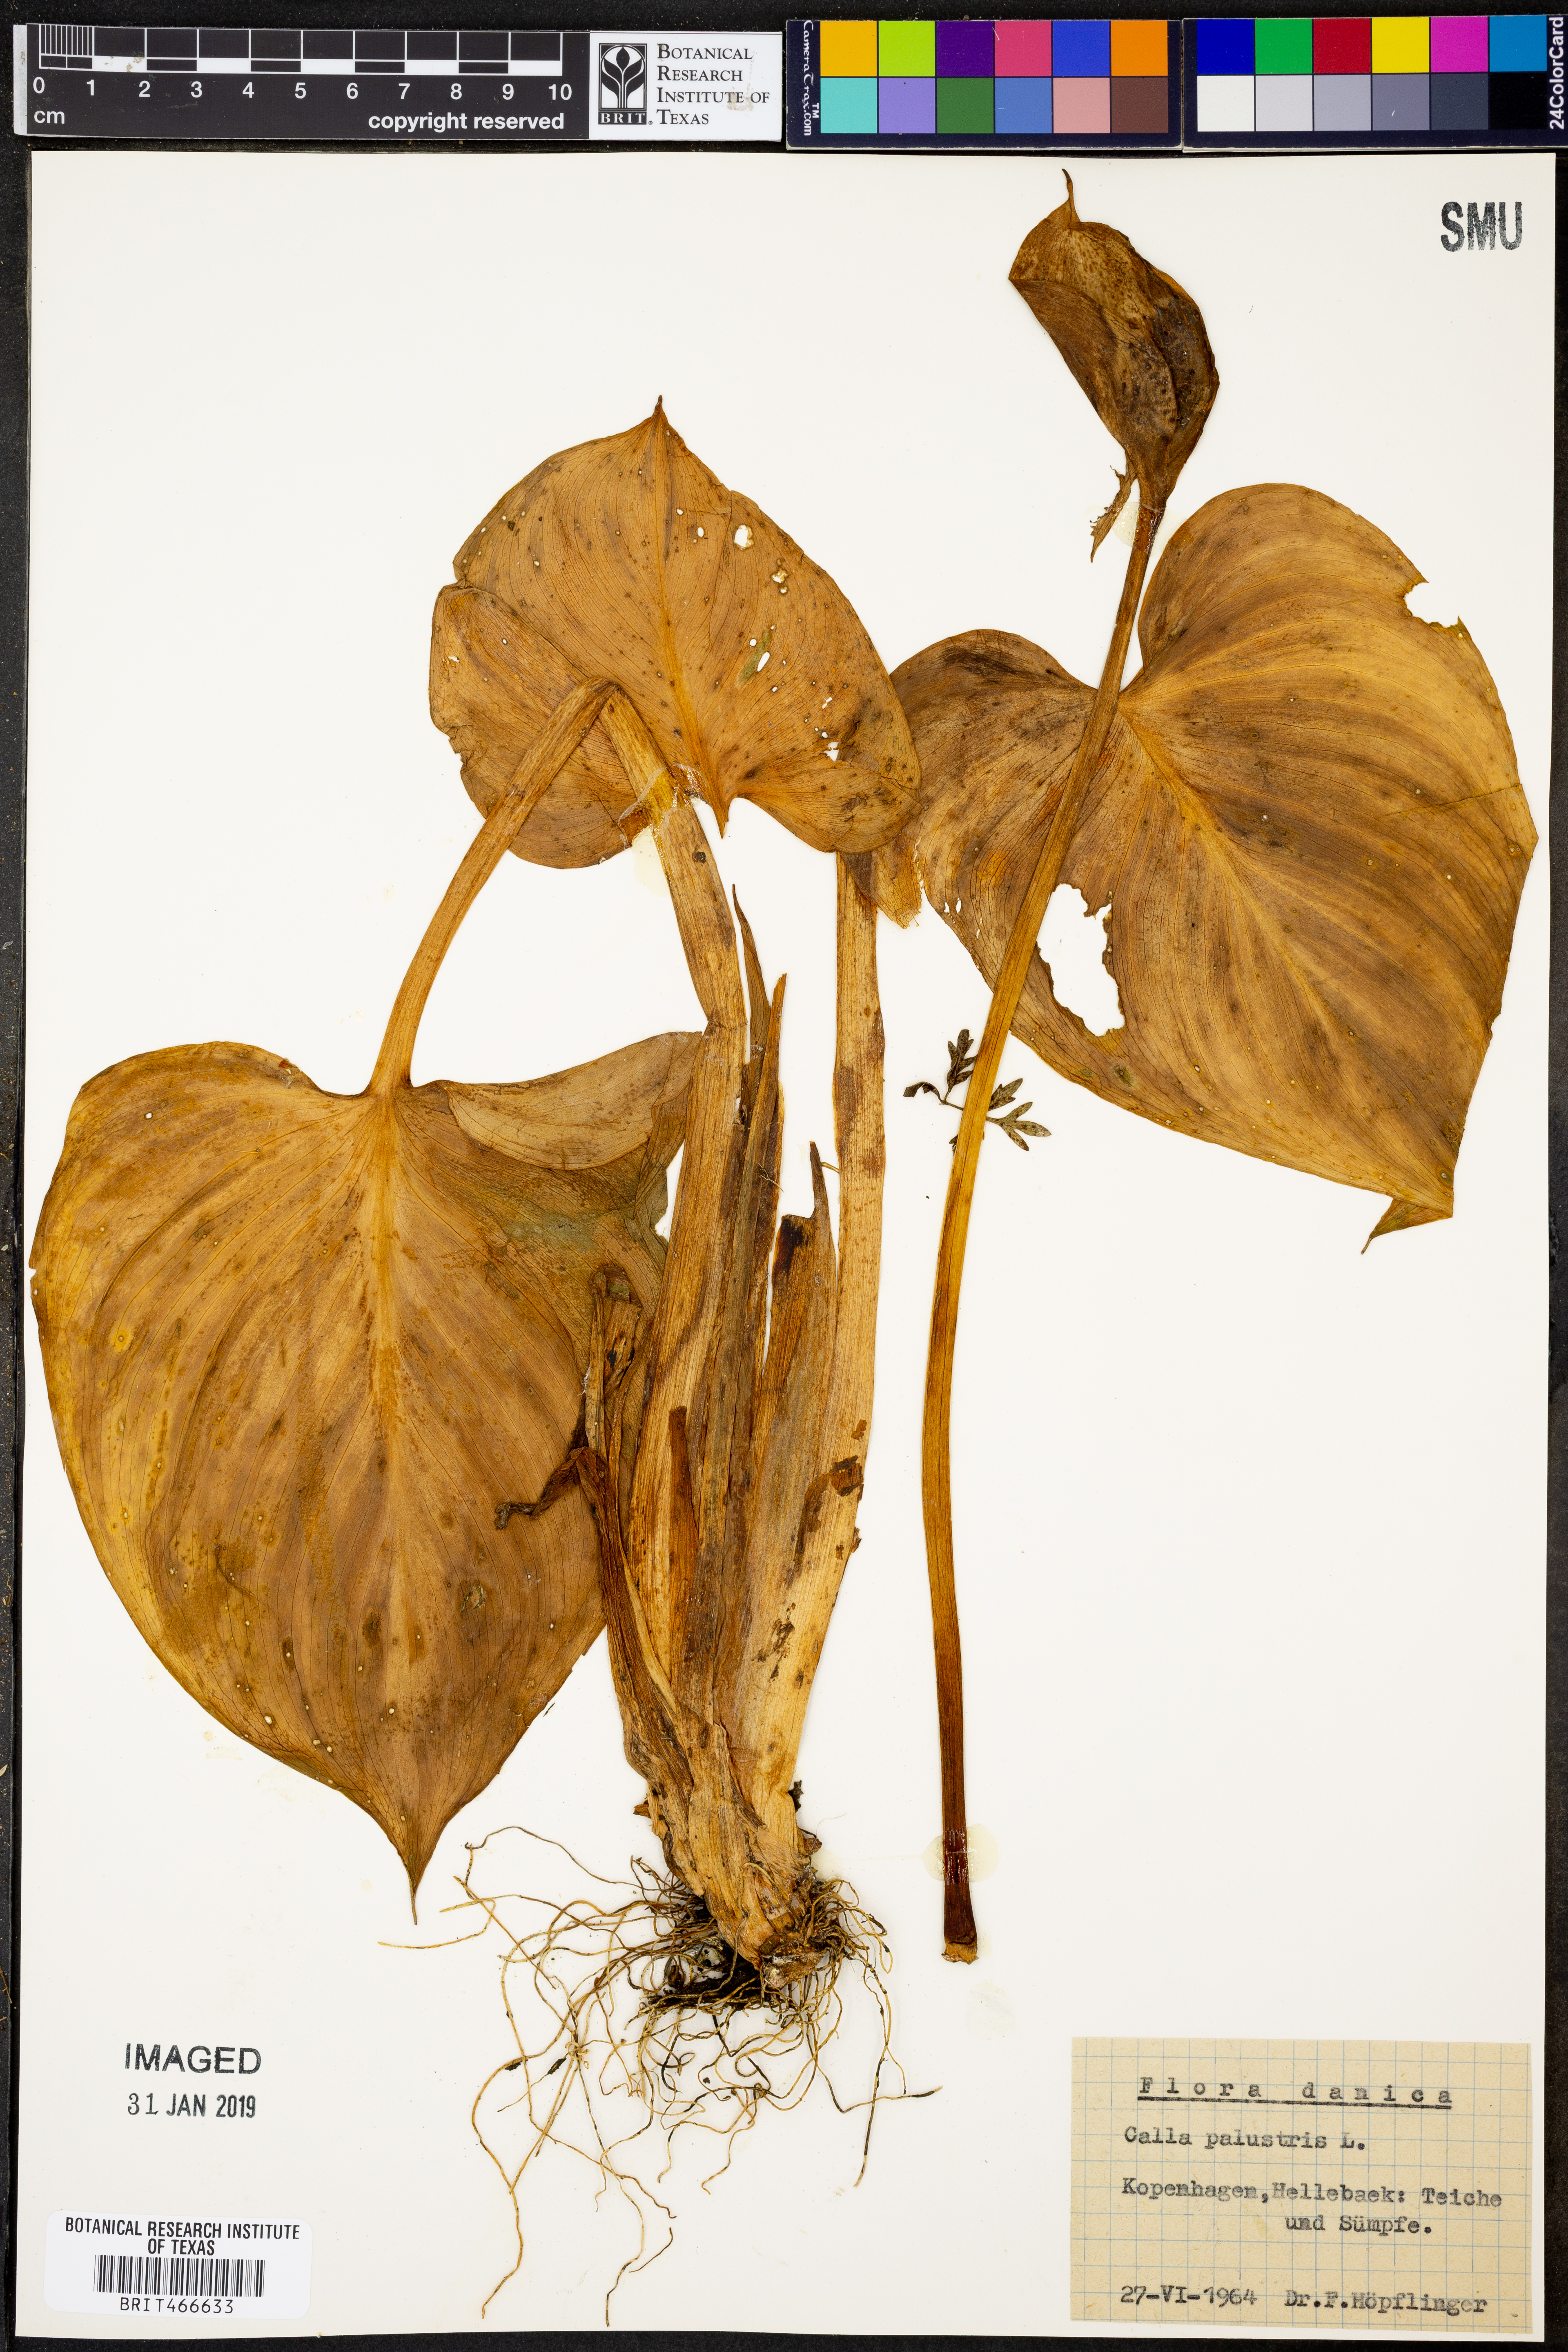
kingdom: Plantae
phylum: Tracheophyta
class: Liliopsida
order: Alismatales
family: Araceae
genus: Calla
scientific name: Calla palustris
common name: Bog arum
